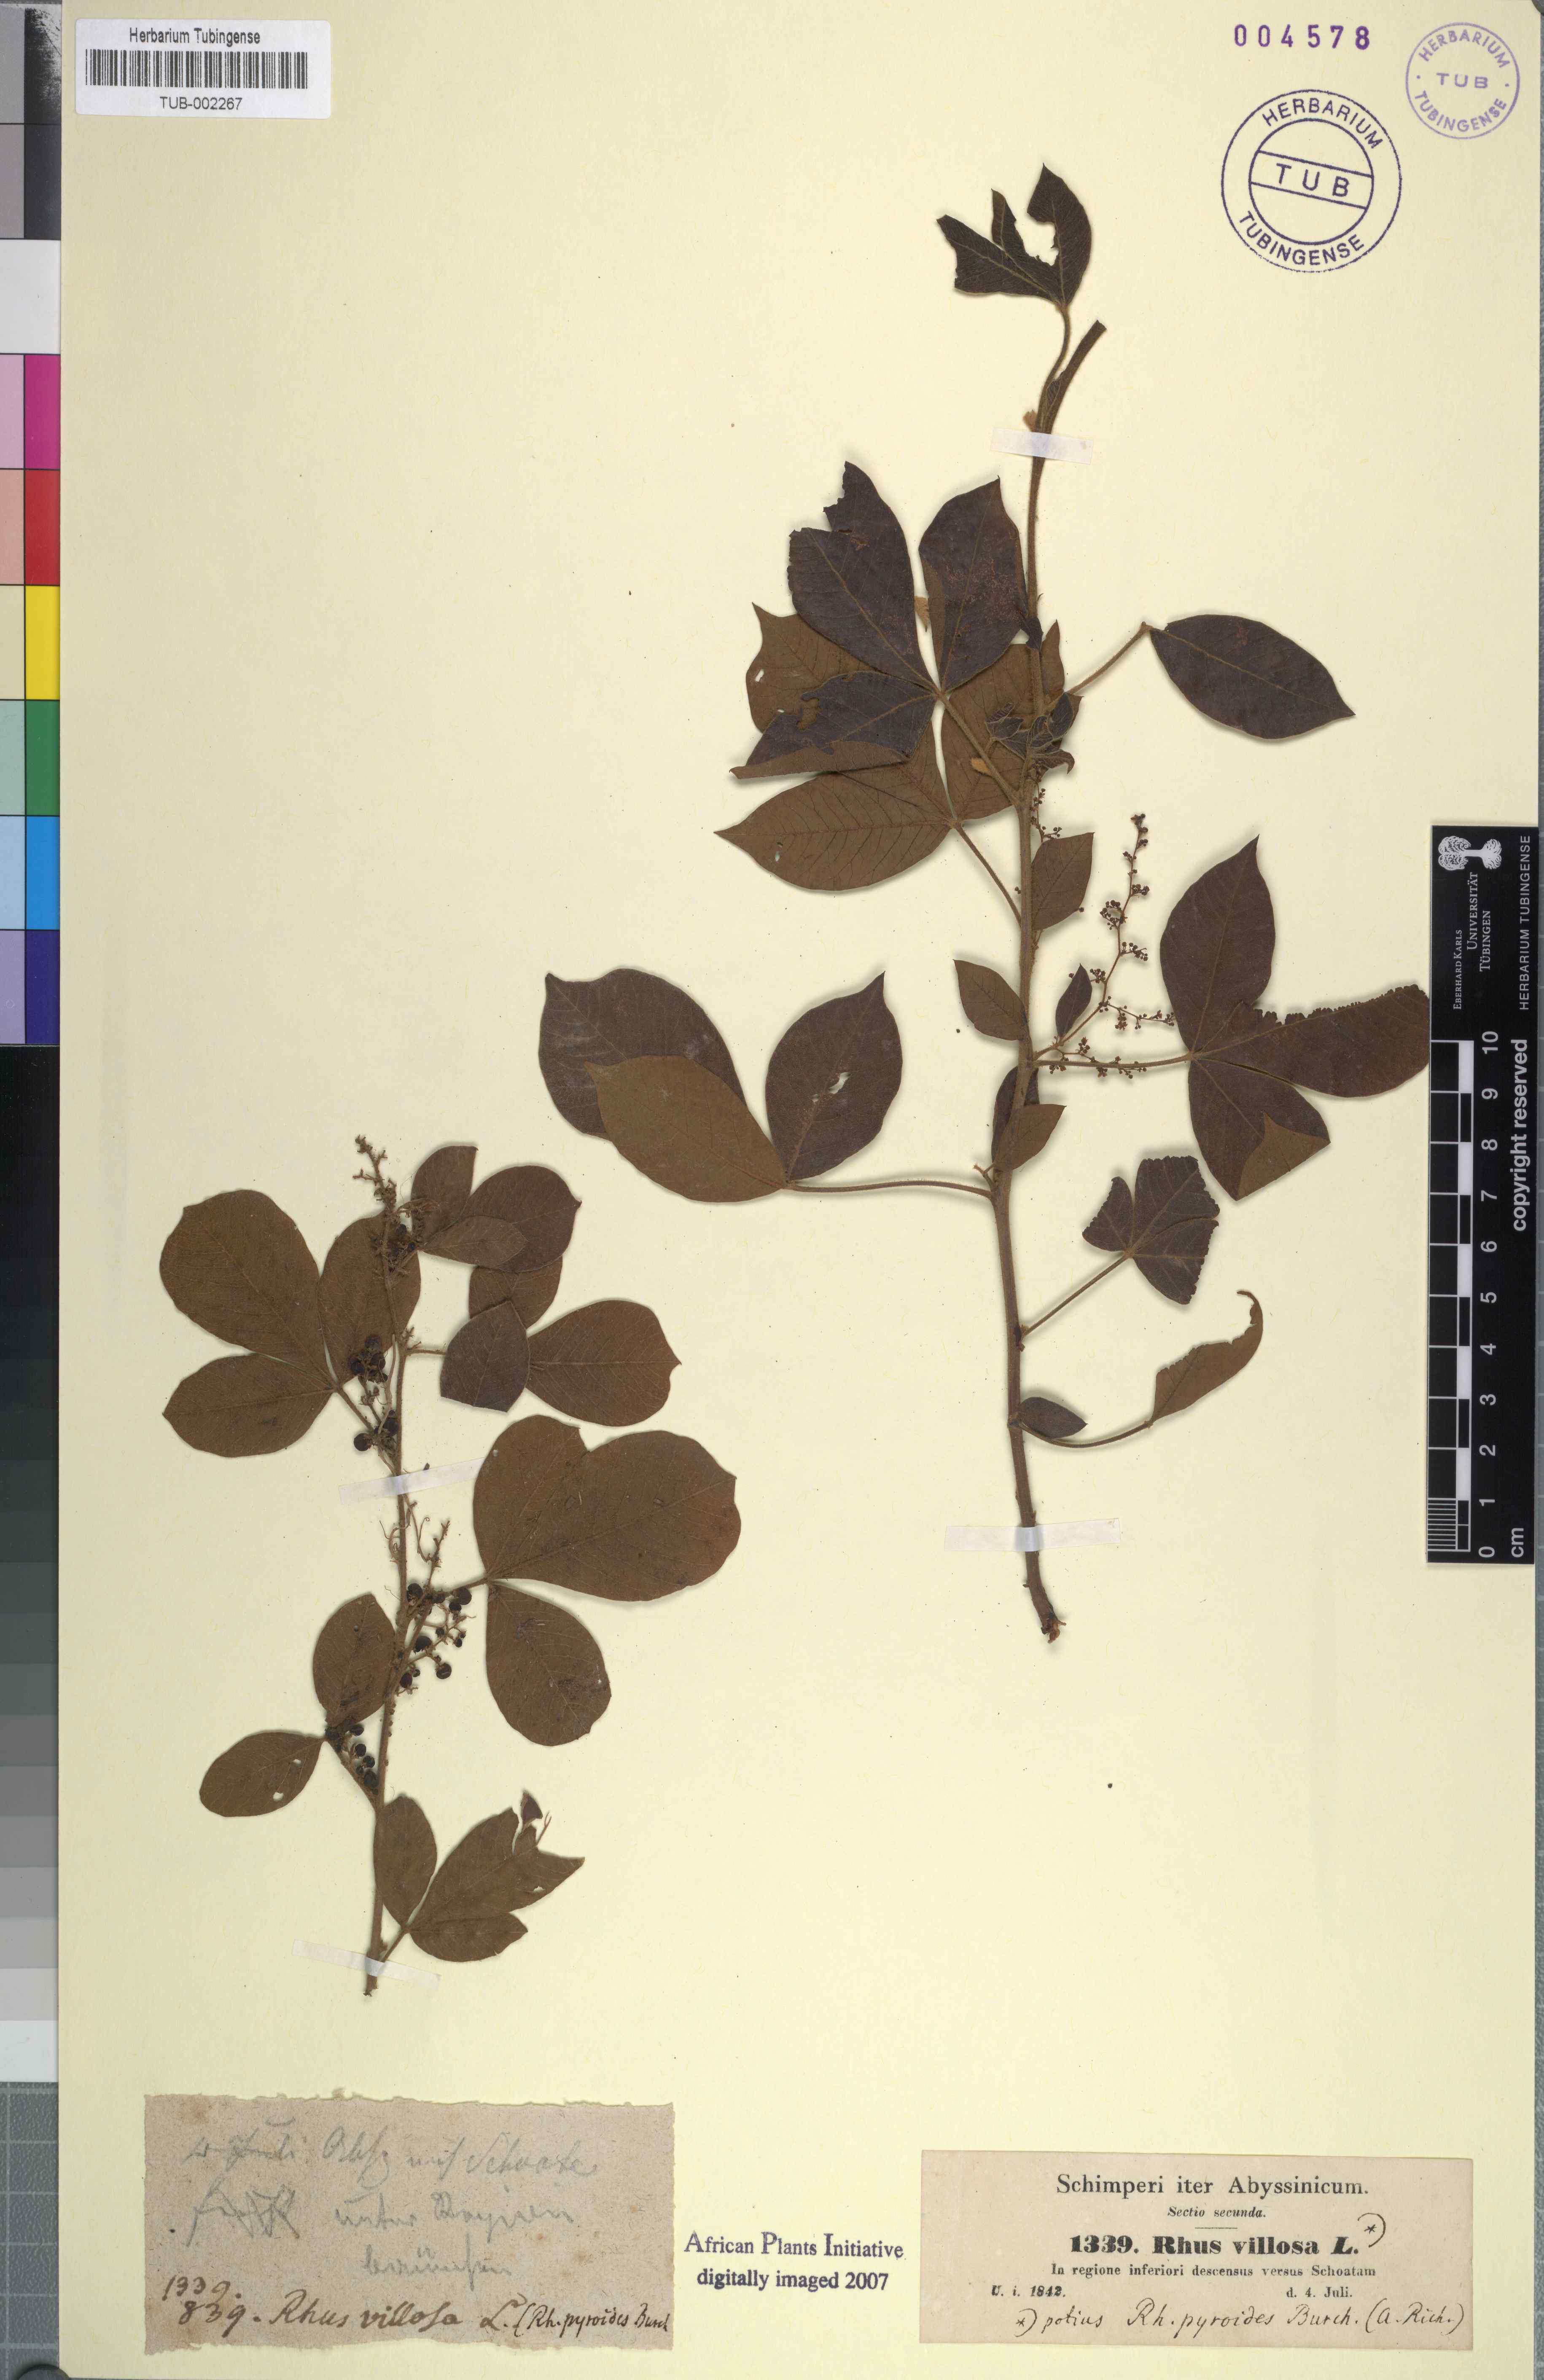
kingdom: Plantae
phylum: Tracheophyta
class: Magnoliopsida
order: Sapindales
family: Anacardiaceae
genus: Searsia
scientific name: Searsia laevigata
